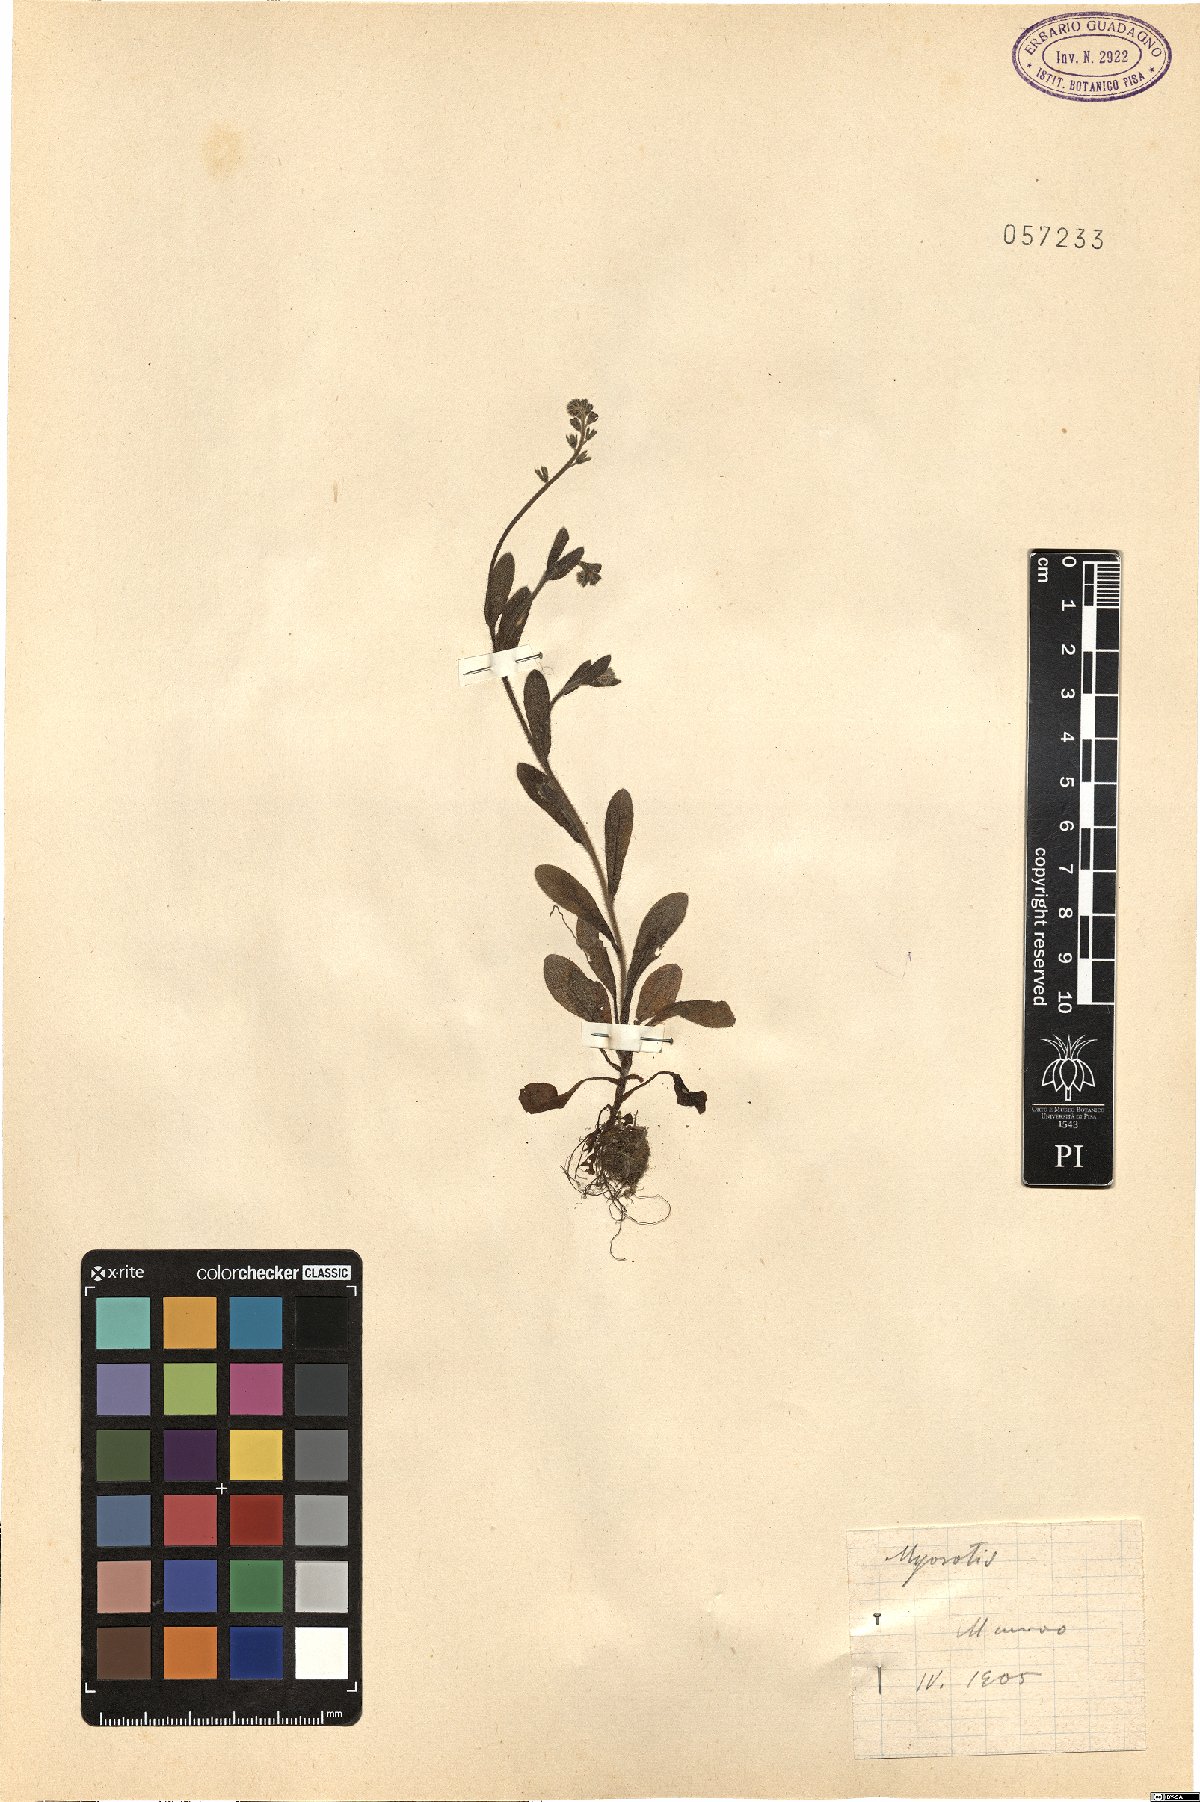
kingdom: Plantae
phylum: Tracheophyta
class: Magnoliopsida
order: Boraginales
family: Boraginaceae
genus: Myosotis
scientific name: Myosotis
